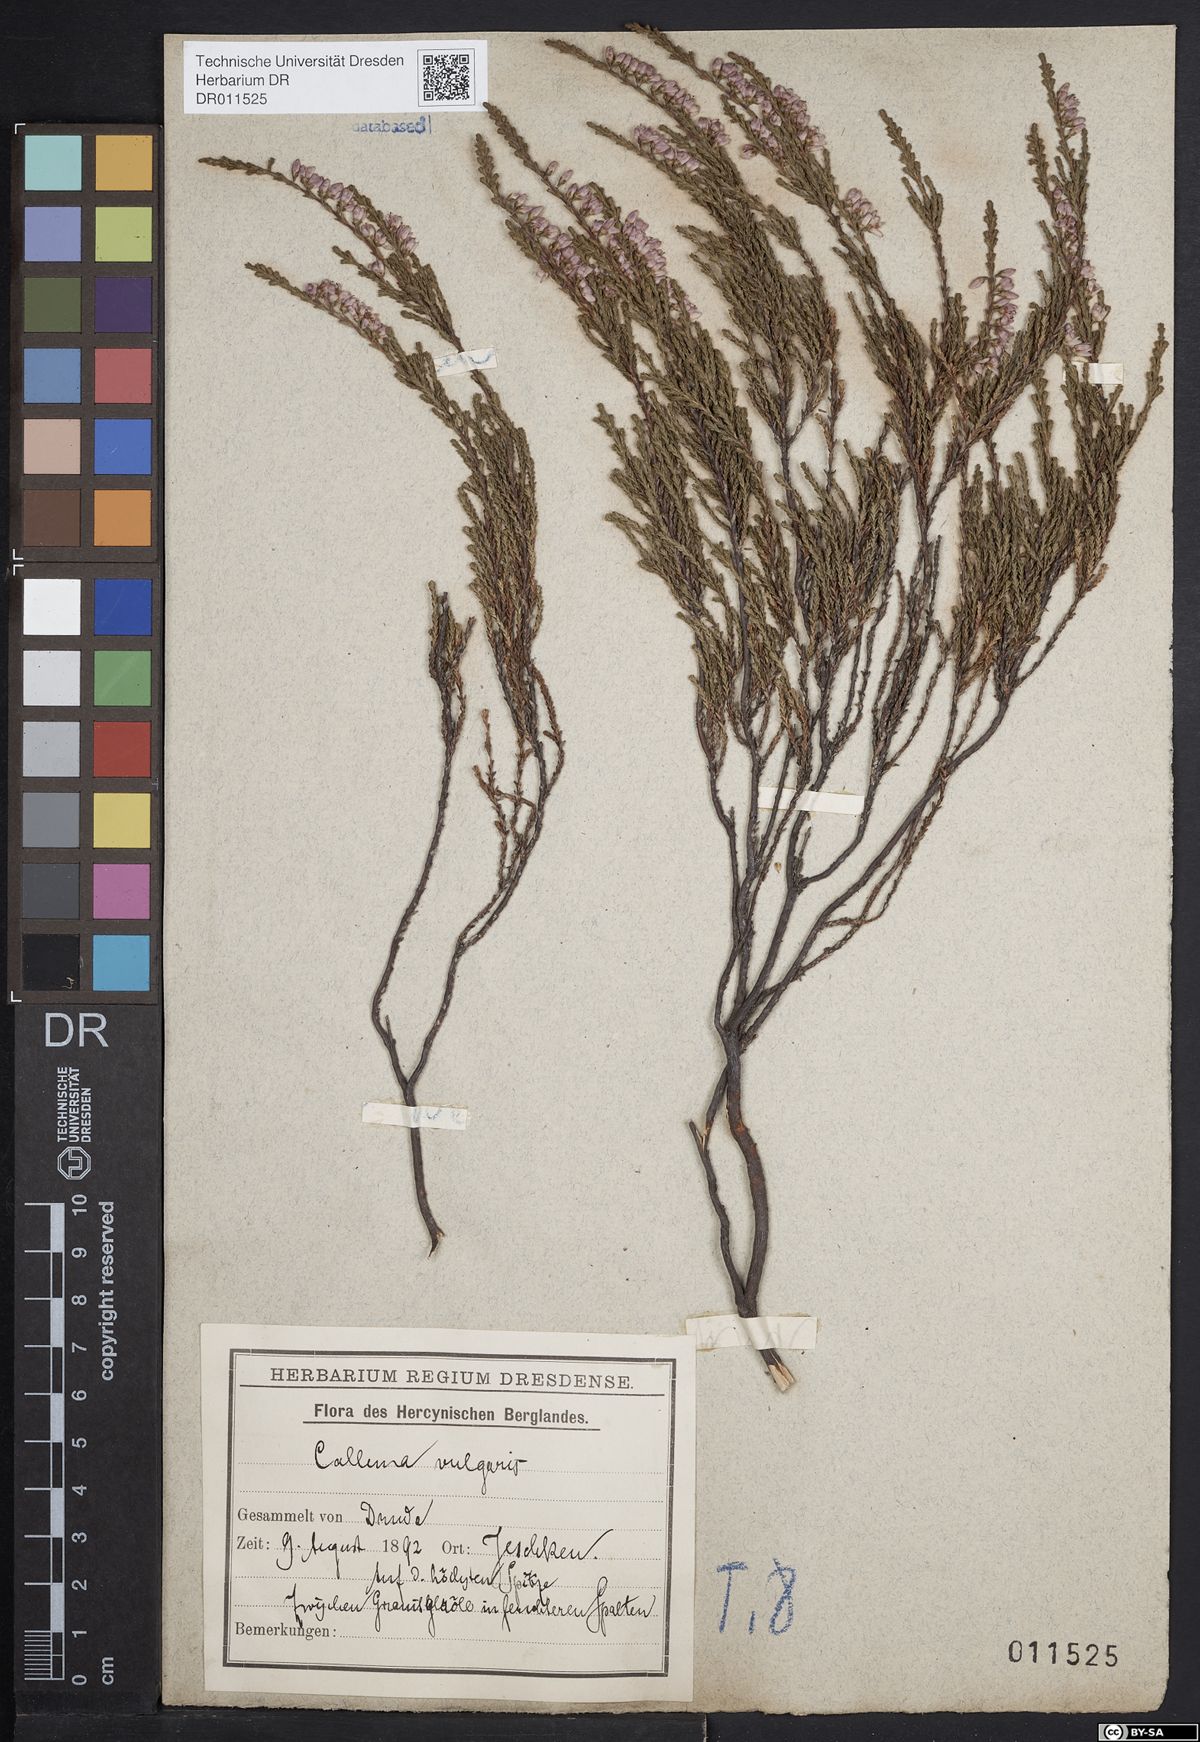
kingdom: Plantae
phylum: Tracheophyta
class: Magnoliopsida
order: Ericales
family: Ericaceae
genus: Calluna
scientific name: Calluna vulgaris
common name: Heather
